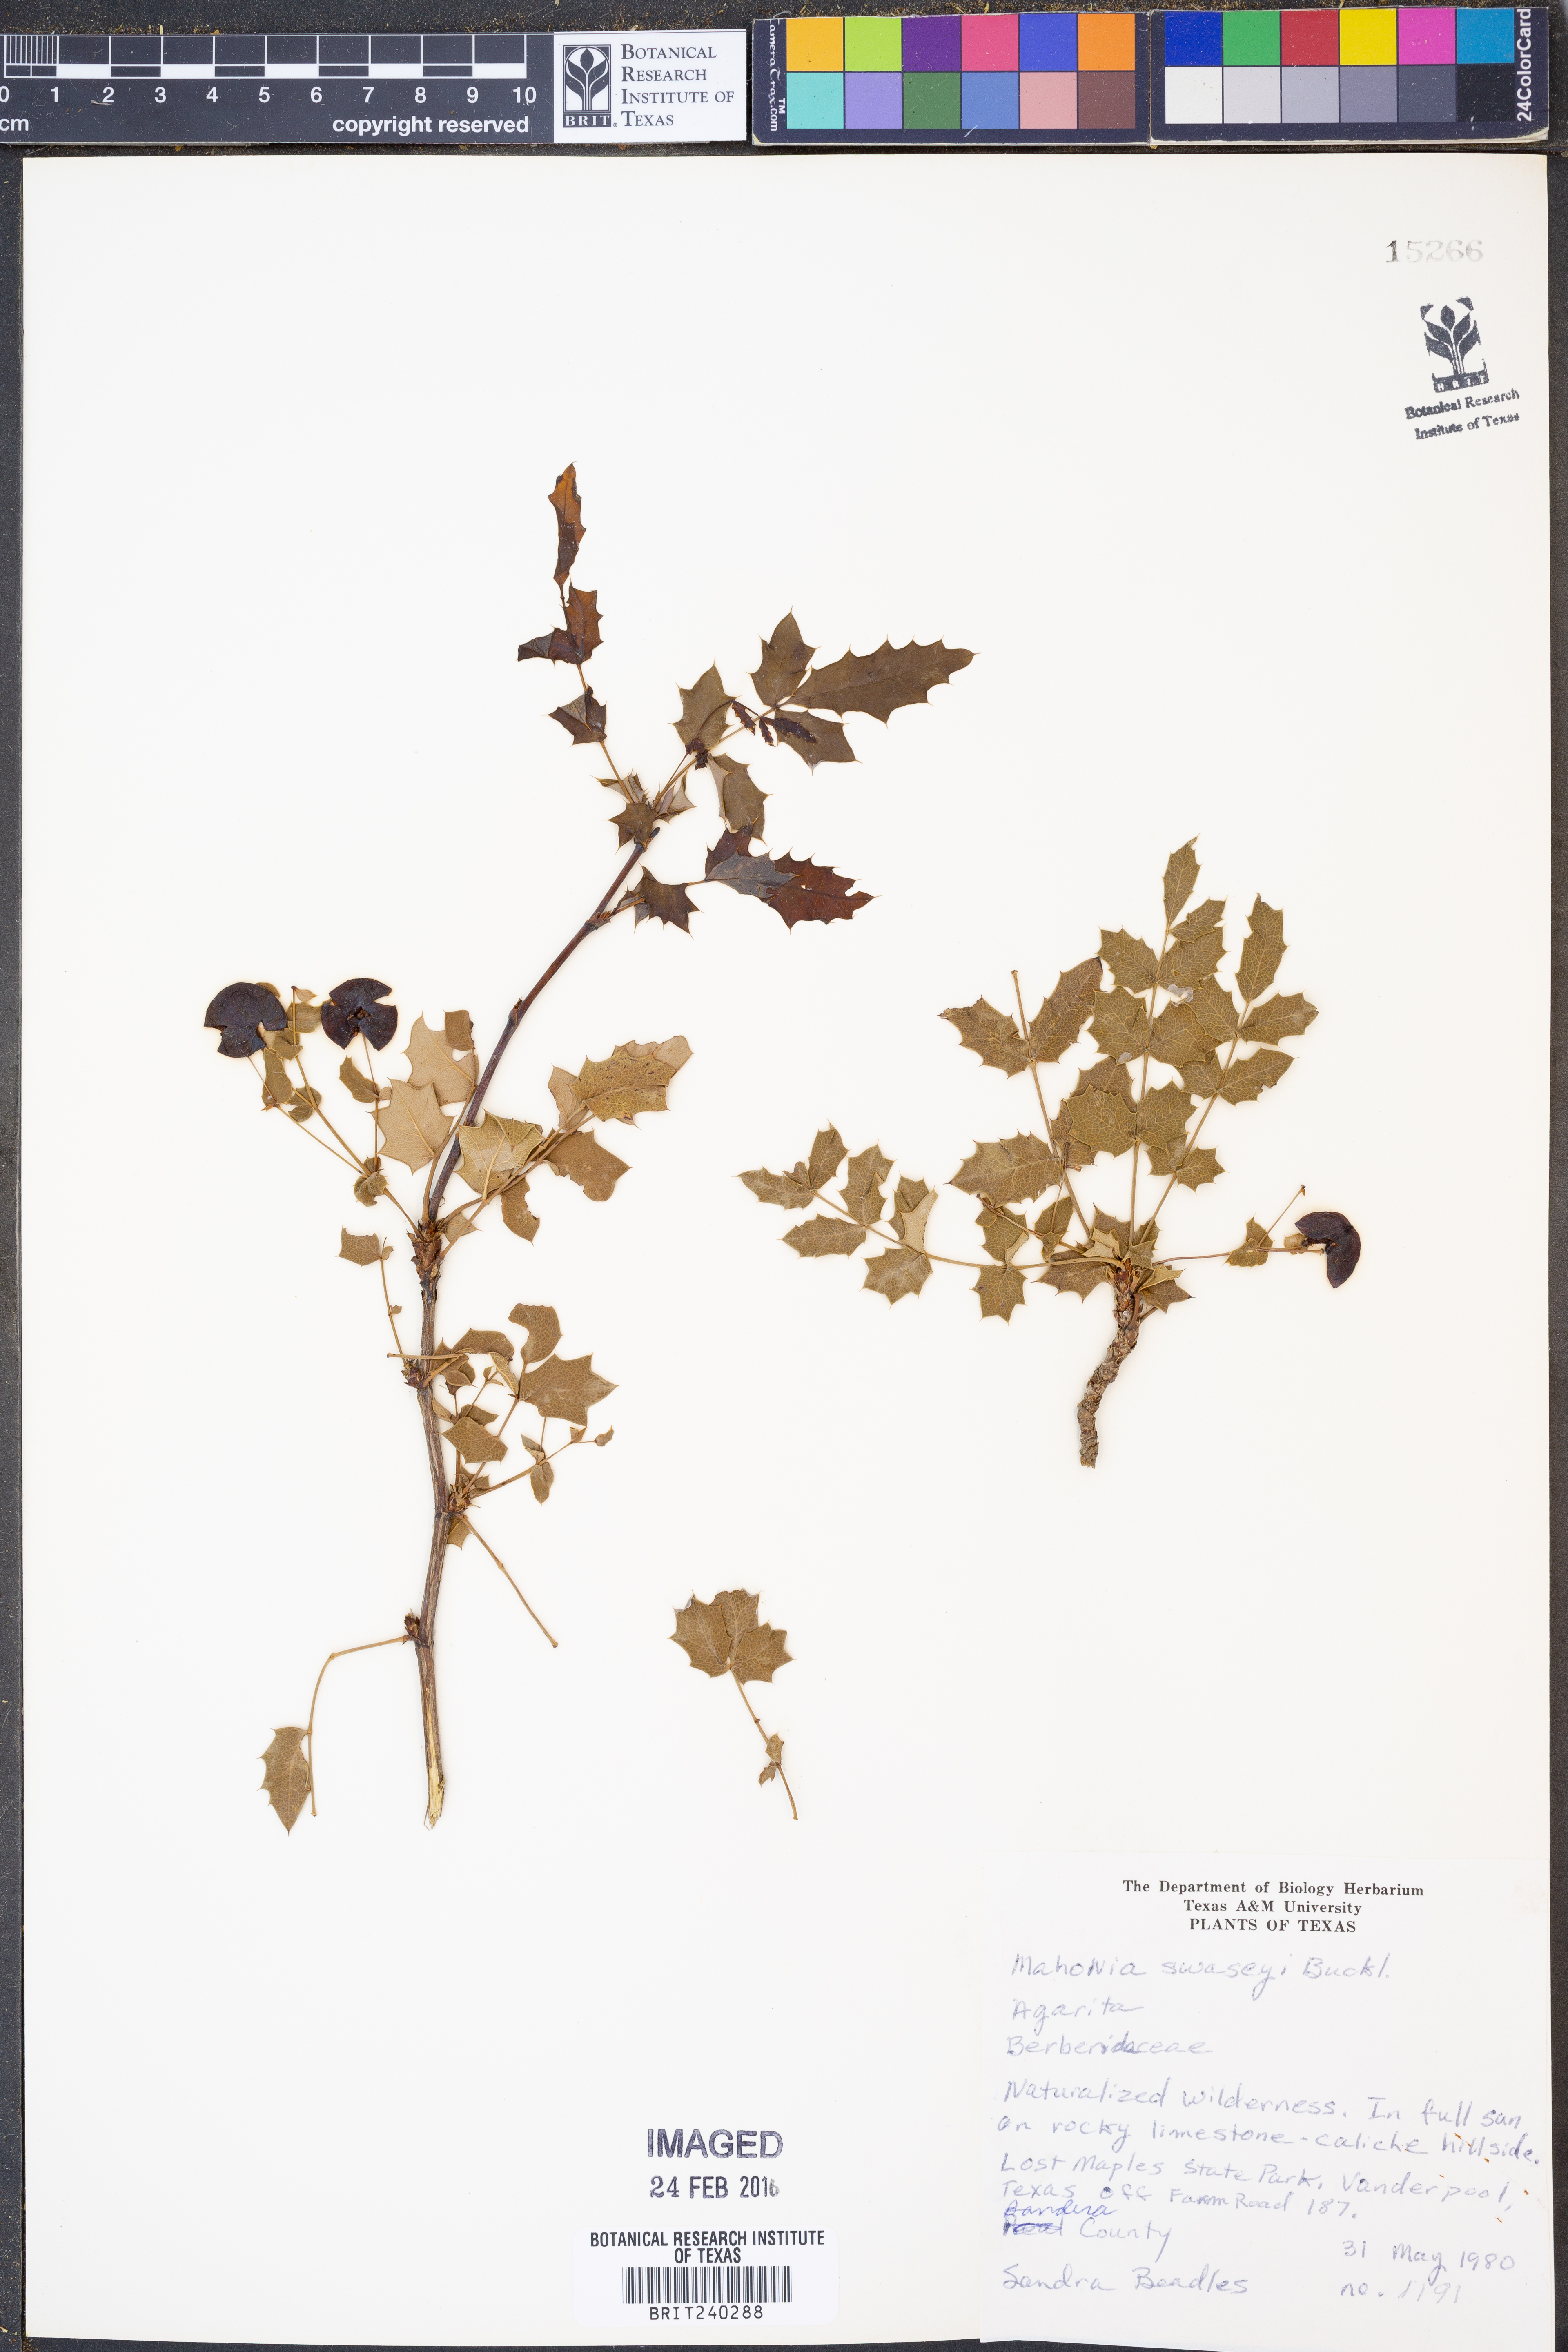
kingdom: Plantae
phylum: Tracheophyta
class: Magnoliopsida
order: Ranunculales
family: Berberidaceae
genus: Alloberberis
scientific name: Alloberberis swaseyi
